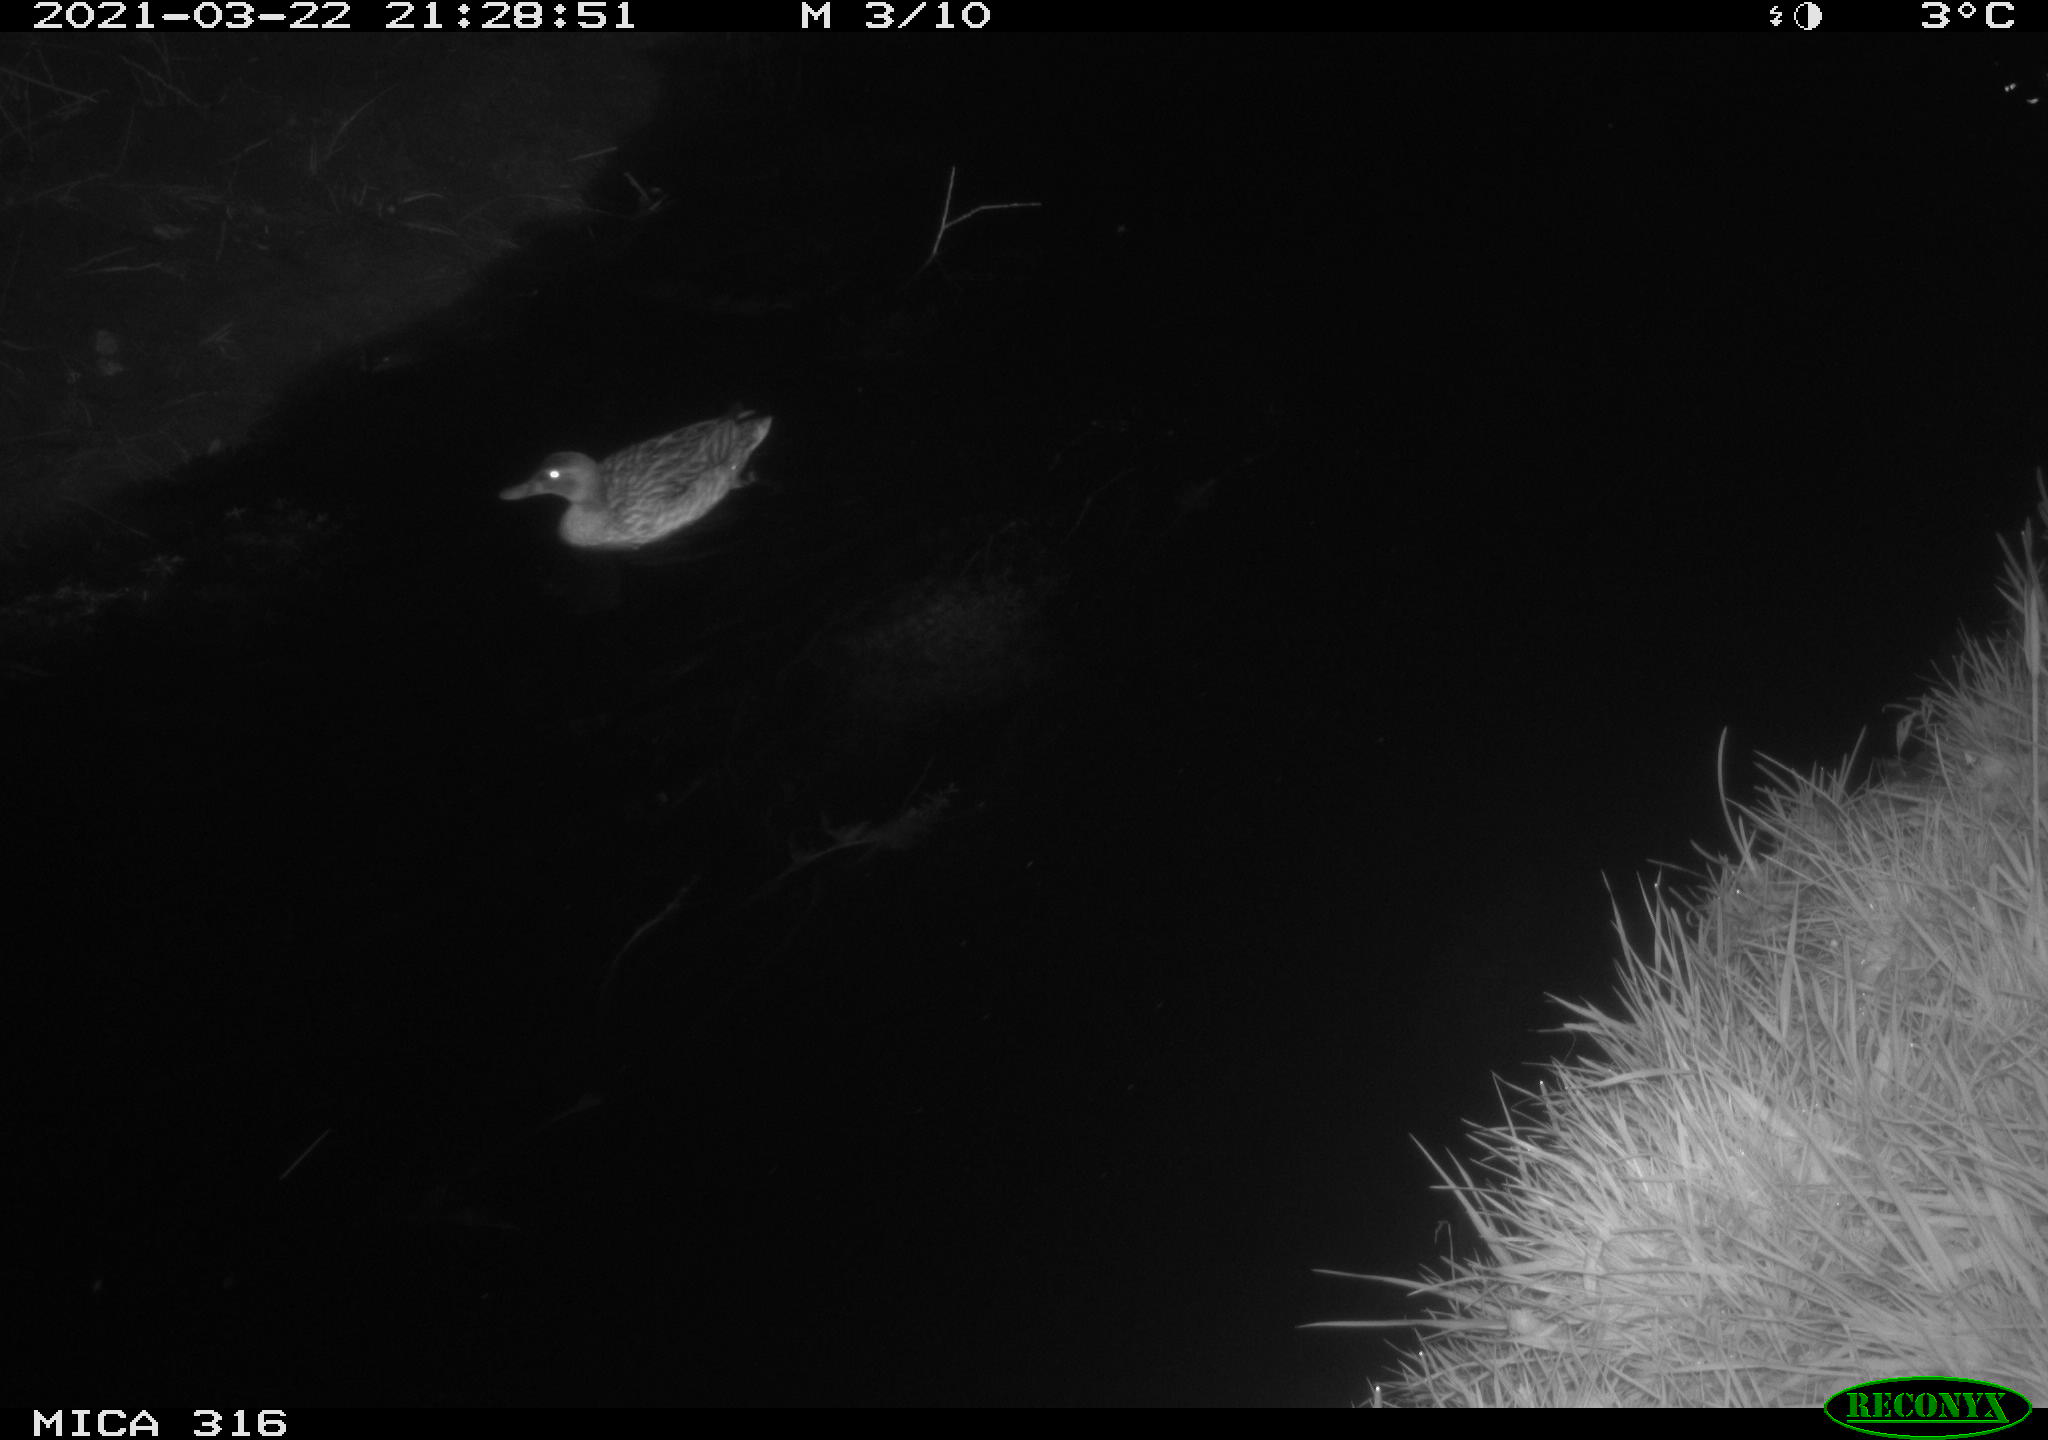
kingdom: Animalia
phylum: Chordata
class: Aves
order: Gruiformes
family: Rallidae
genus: Gallinula
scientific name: Gallinula chloropus
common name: Common moorhen
